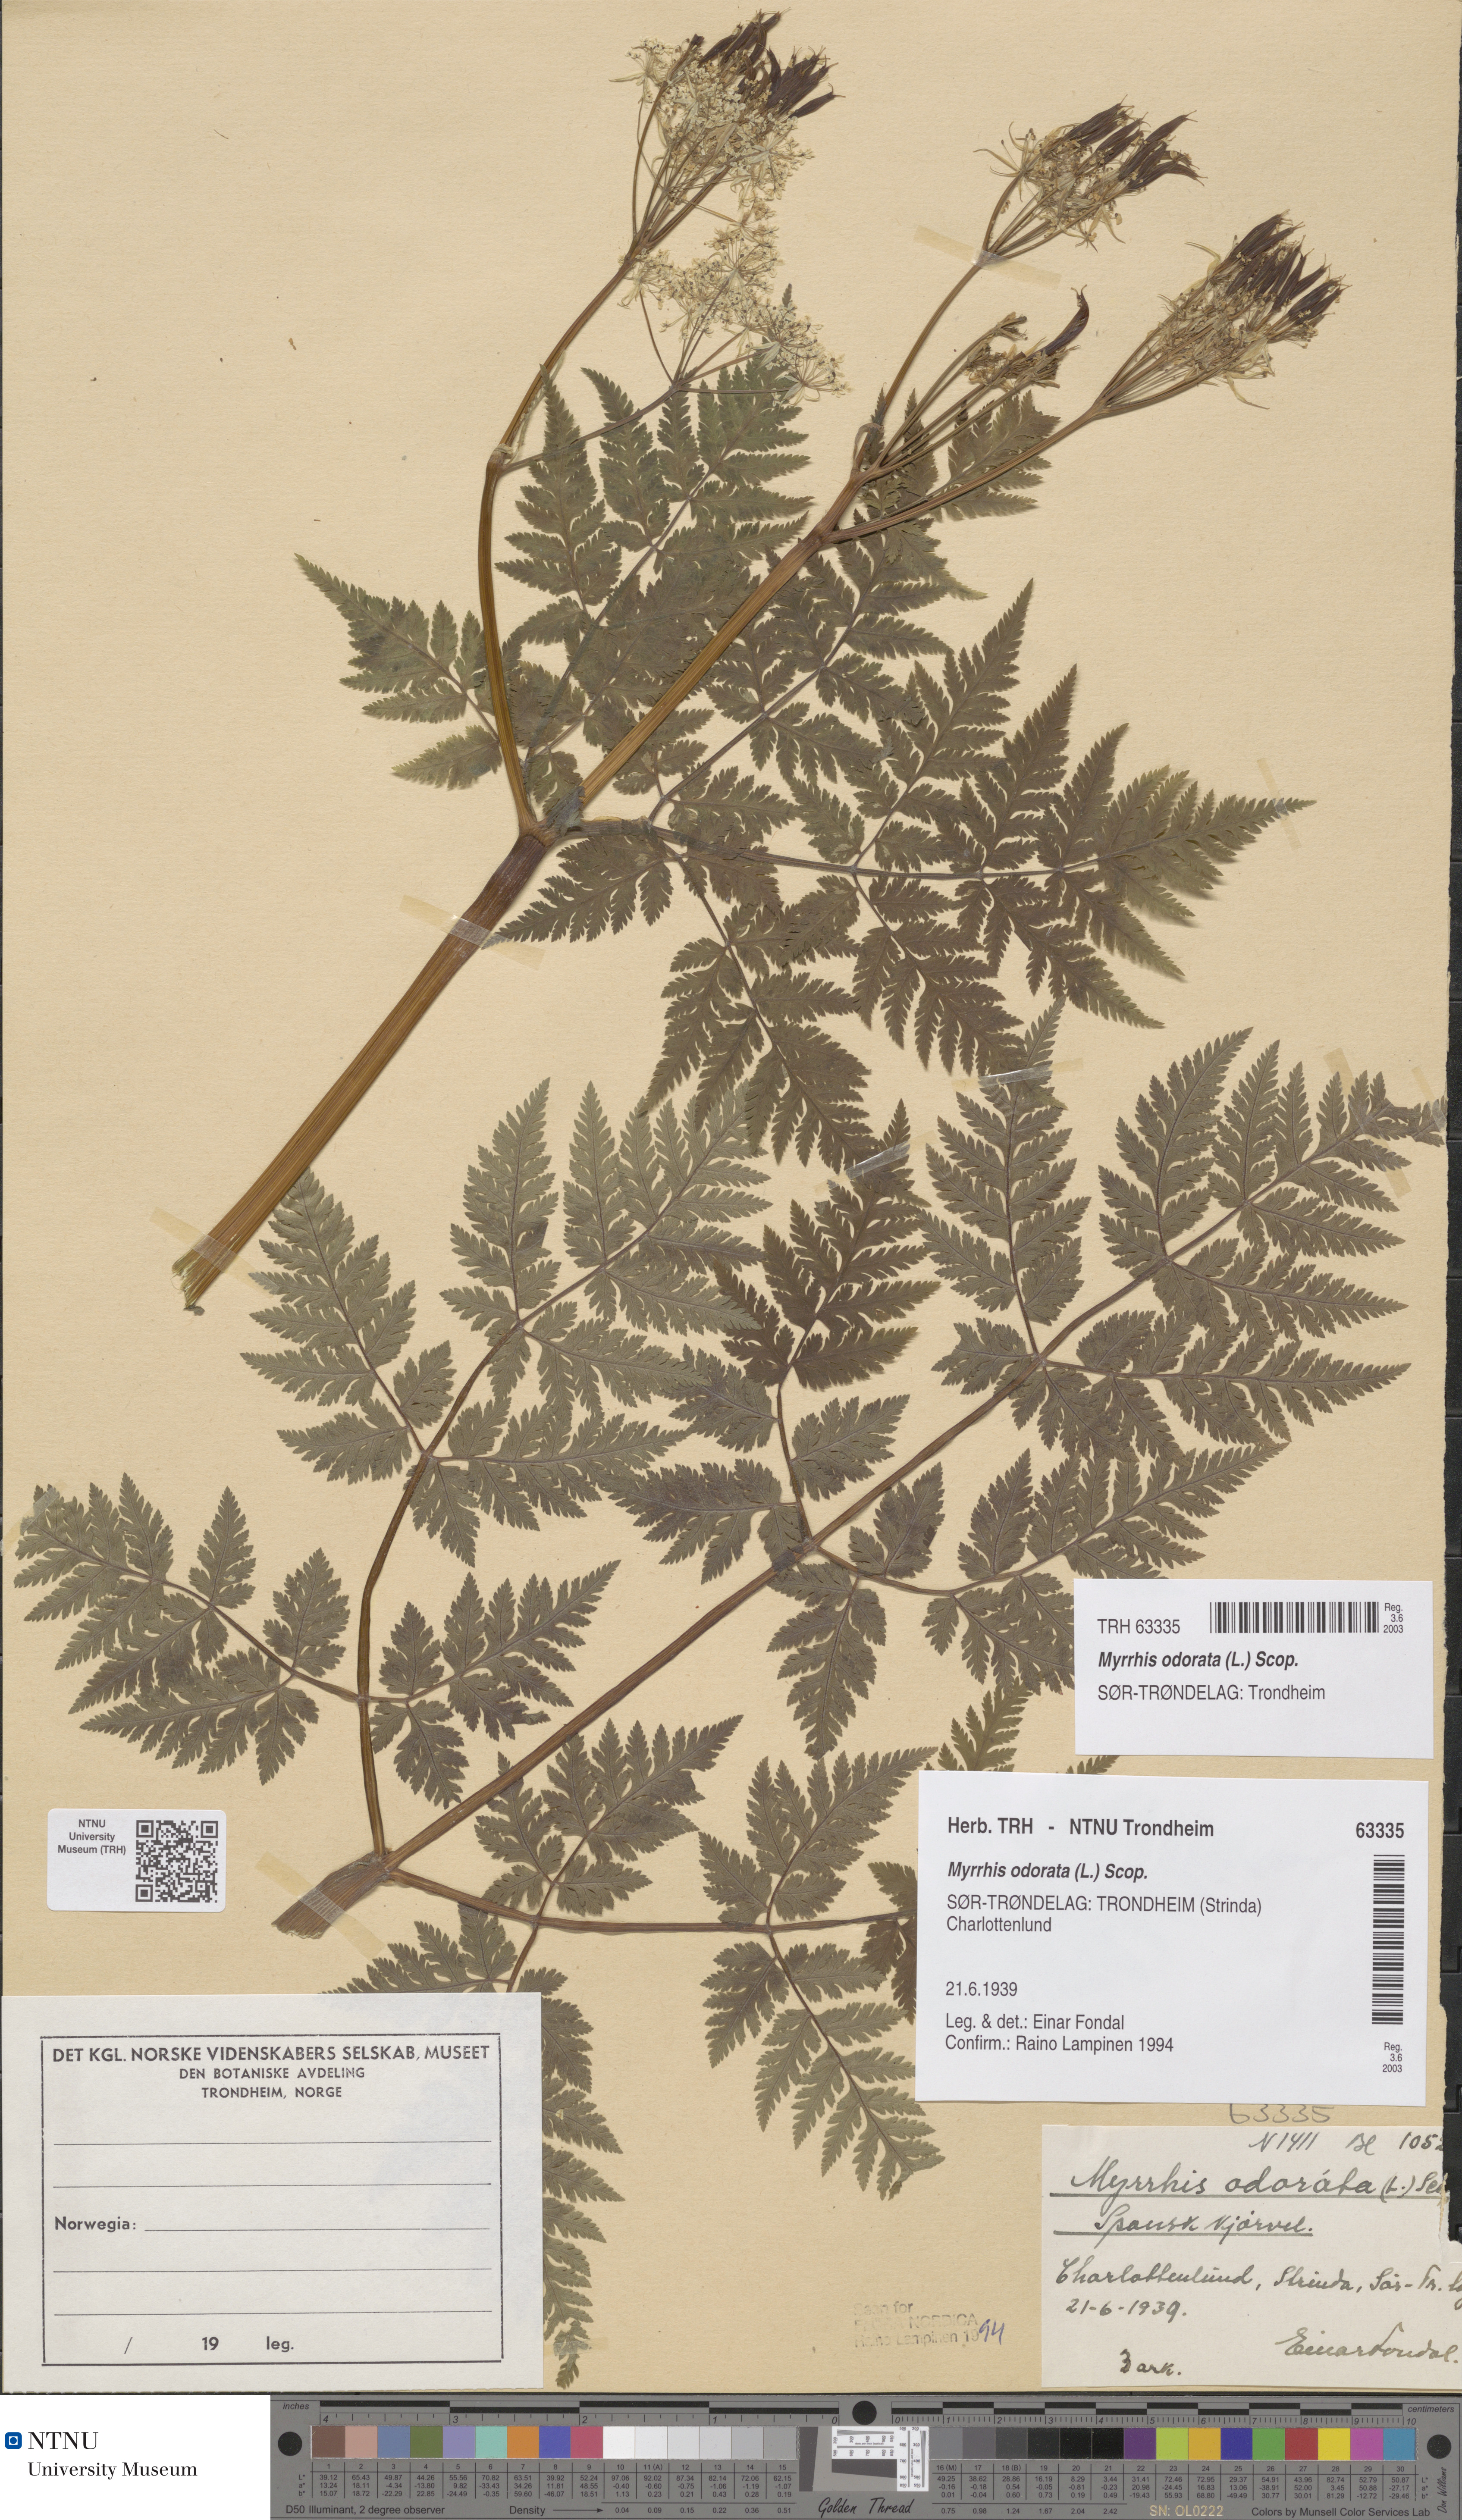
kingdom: Plantae
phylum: Tracheophyta
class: Magnoliopsida
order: Apiales
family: Apiaceae
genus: Myrrhis
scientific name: Myrrhis odorata
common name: Sweet cicely
